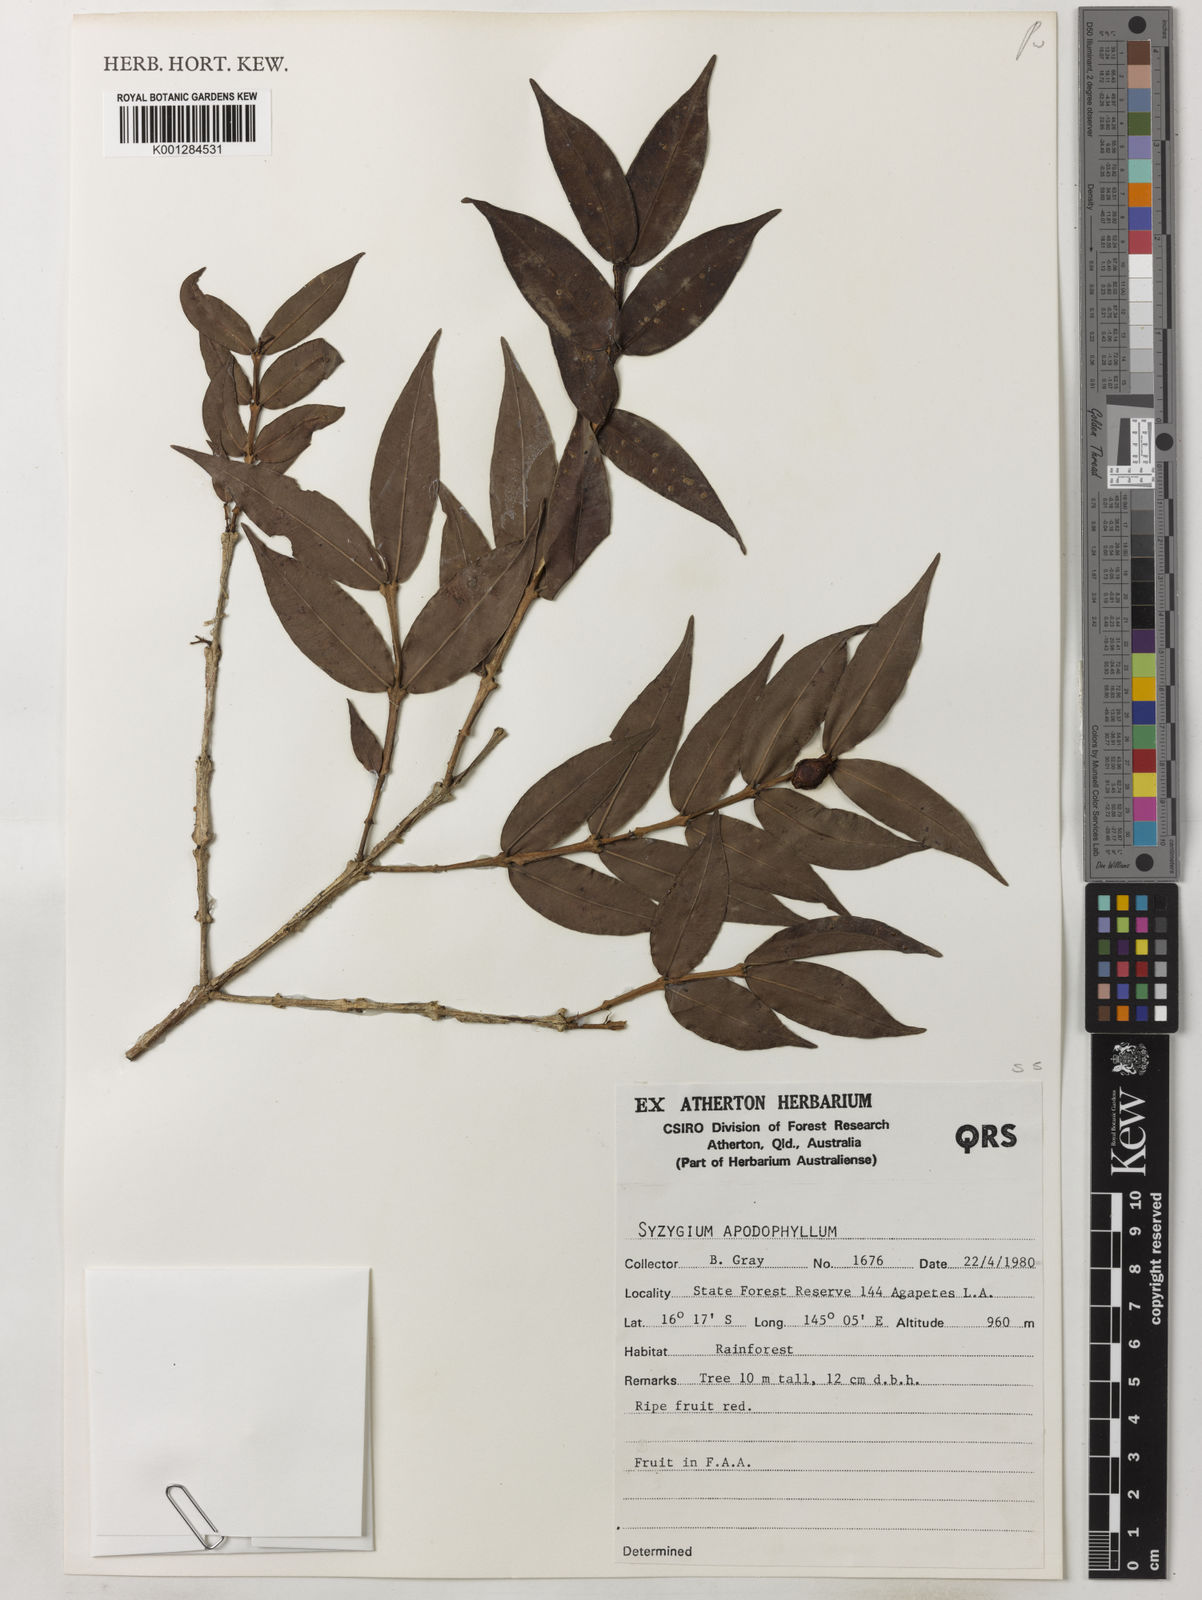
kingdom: Plantae
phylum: Tracheophyta
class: Magnoliopsida
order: Myrtales
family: Myrtaceae
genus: Syzygium
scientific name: Syzygium apodophyllum
